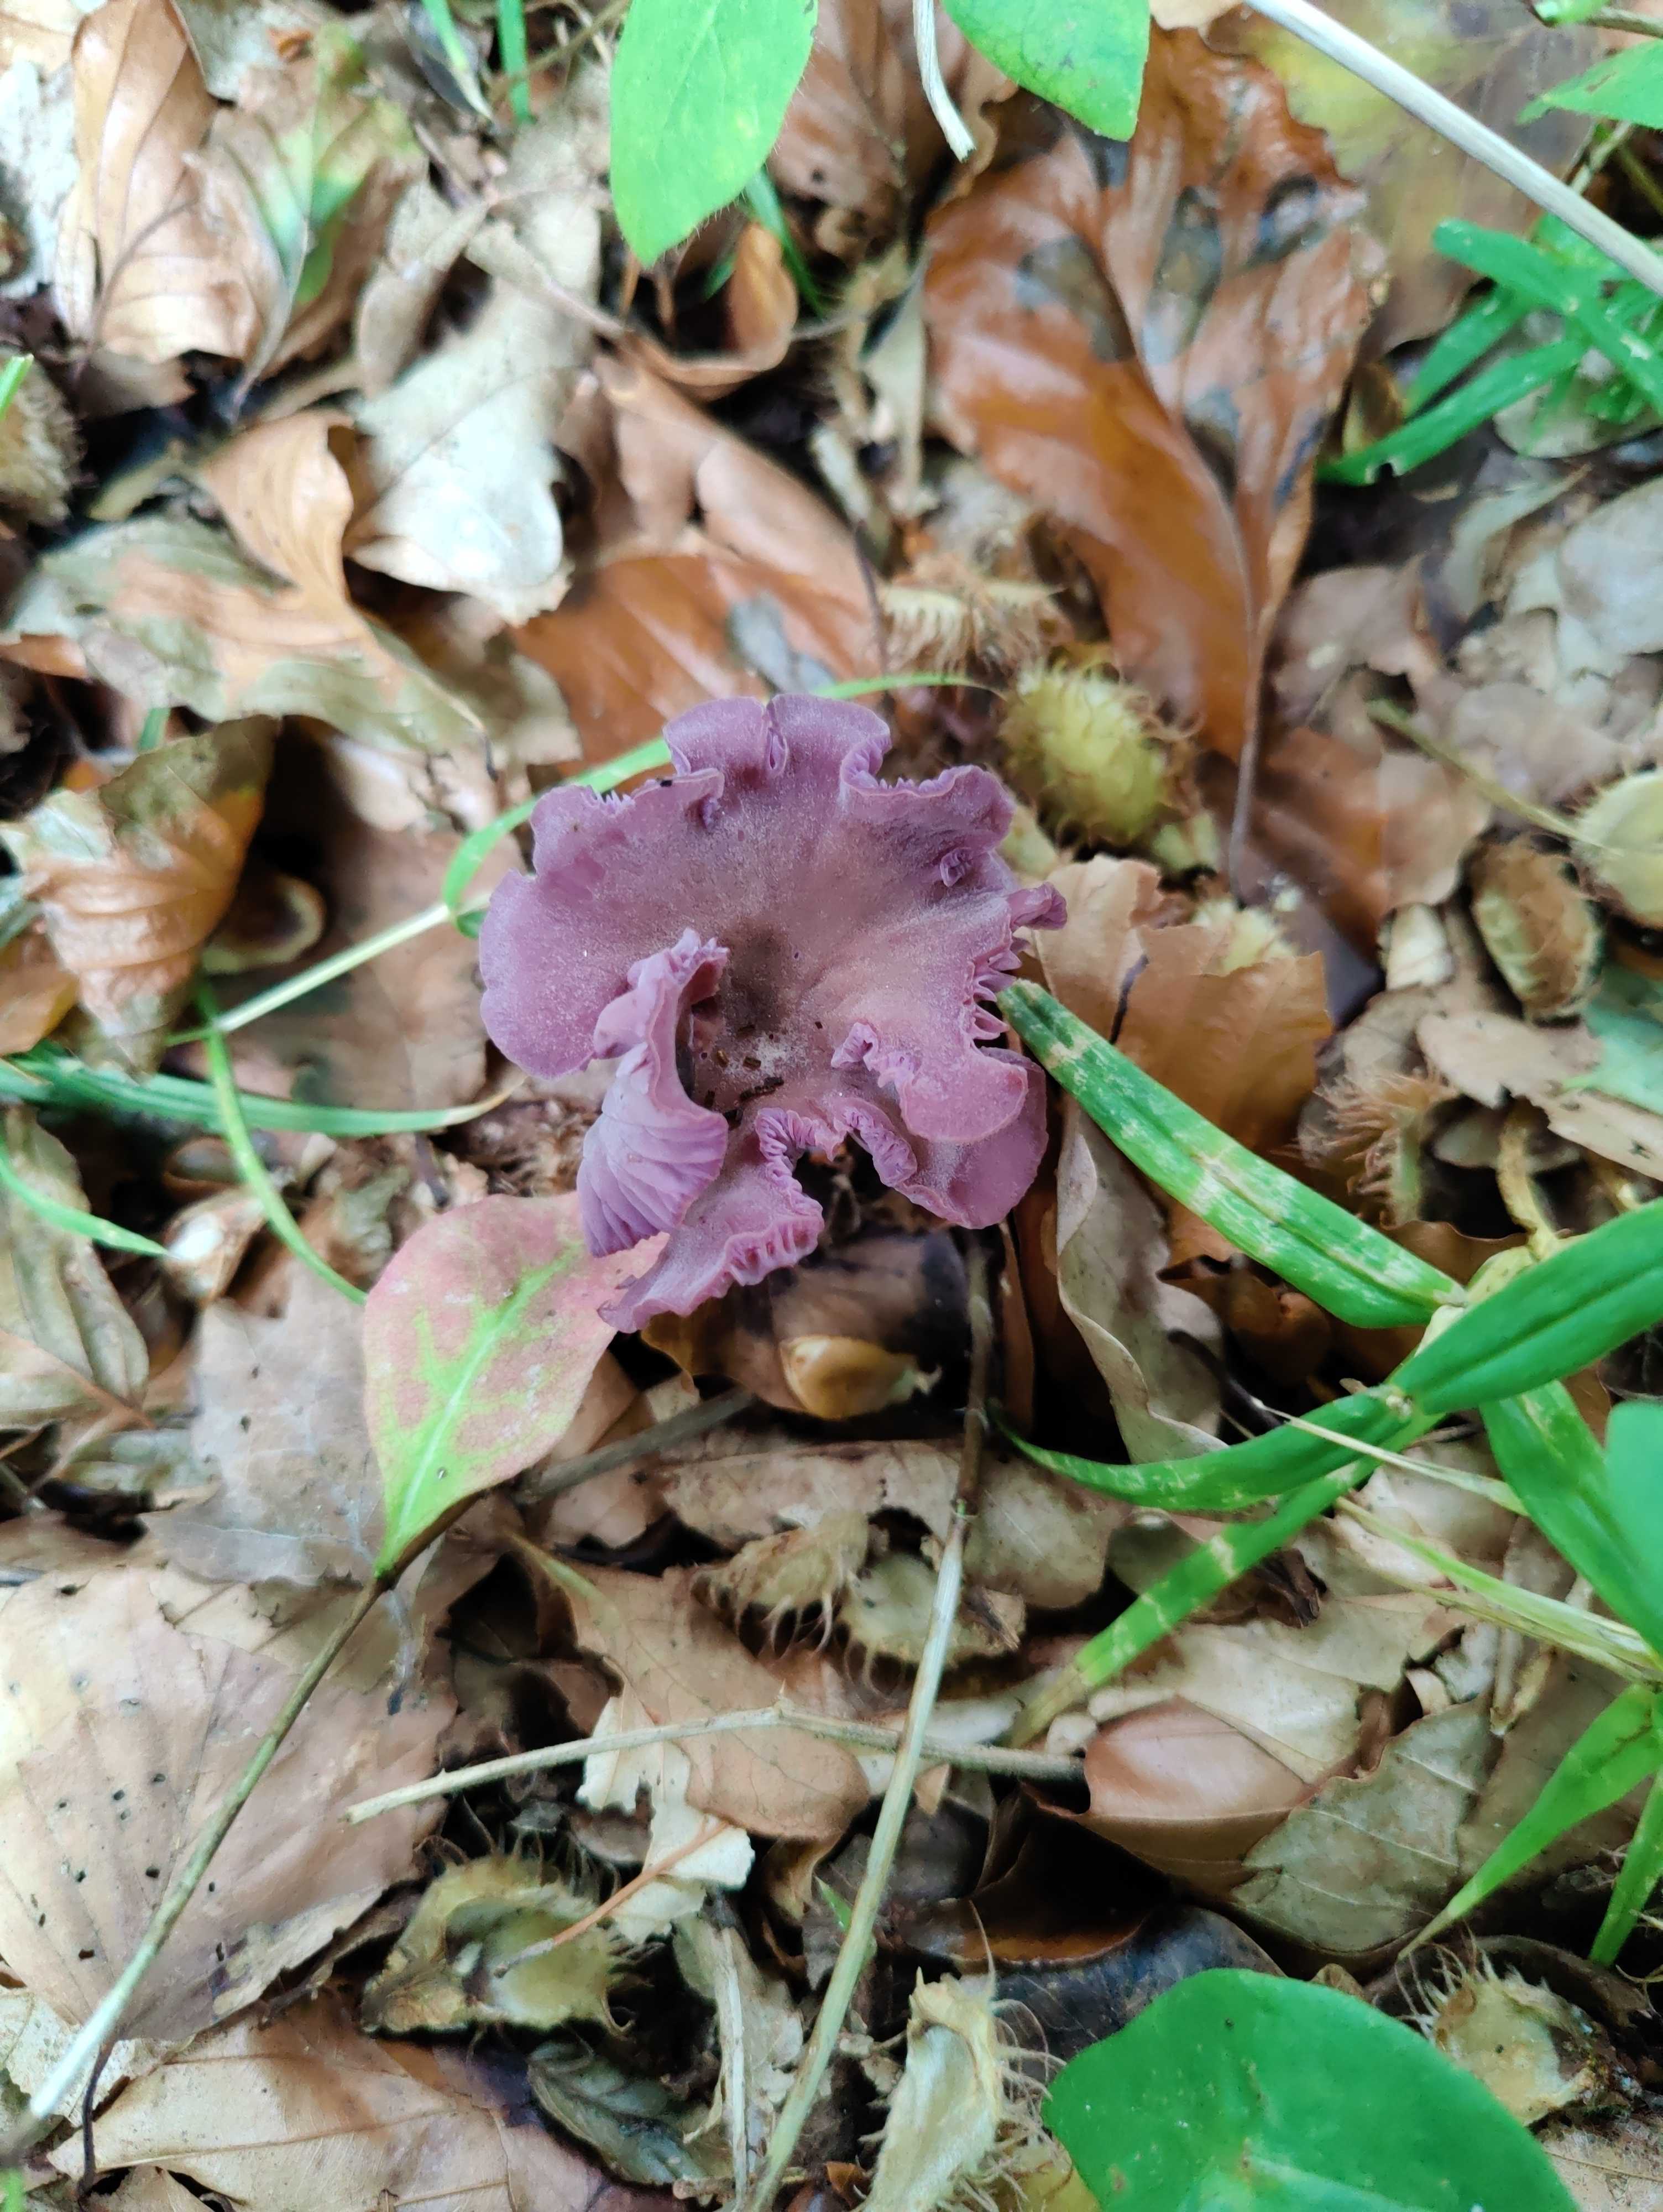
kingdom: Fungi
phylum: Basidiomycota
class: Agaricomycetes
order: Agaricales
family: Hydnangiaceae
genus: Laccaria
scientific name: Laccaria amethystina
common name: violet ametysthat
